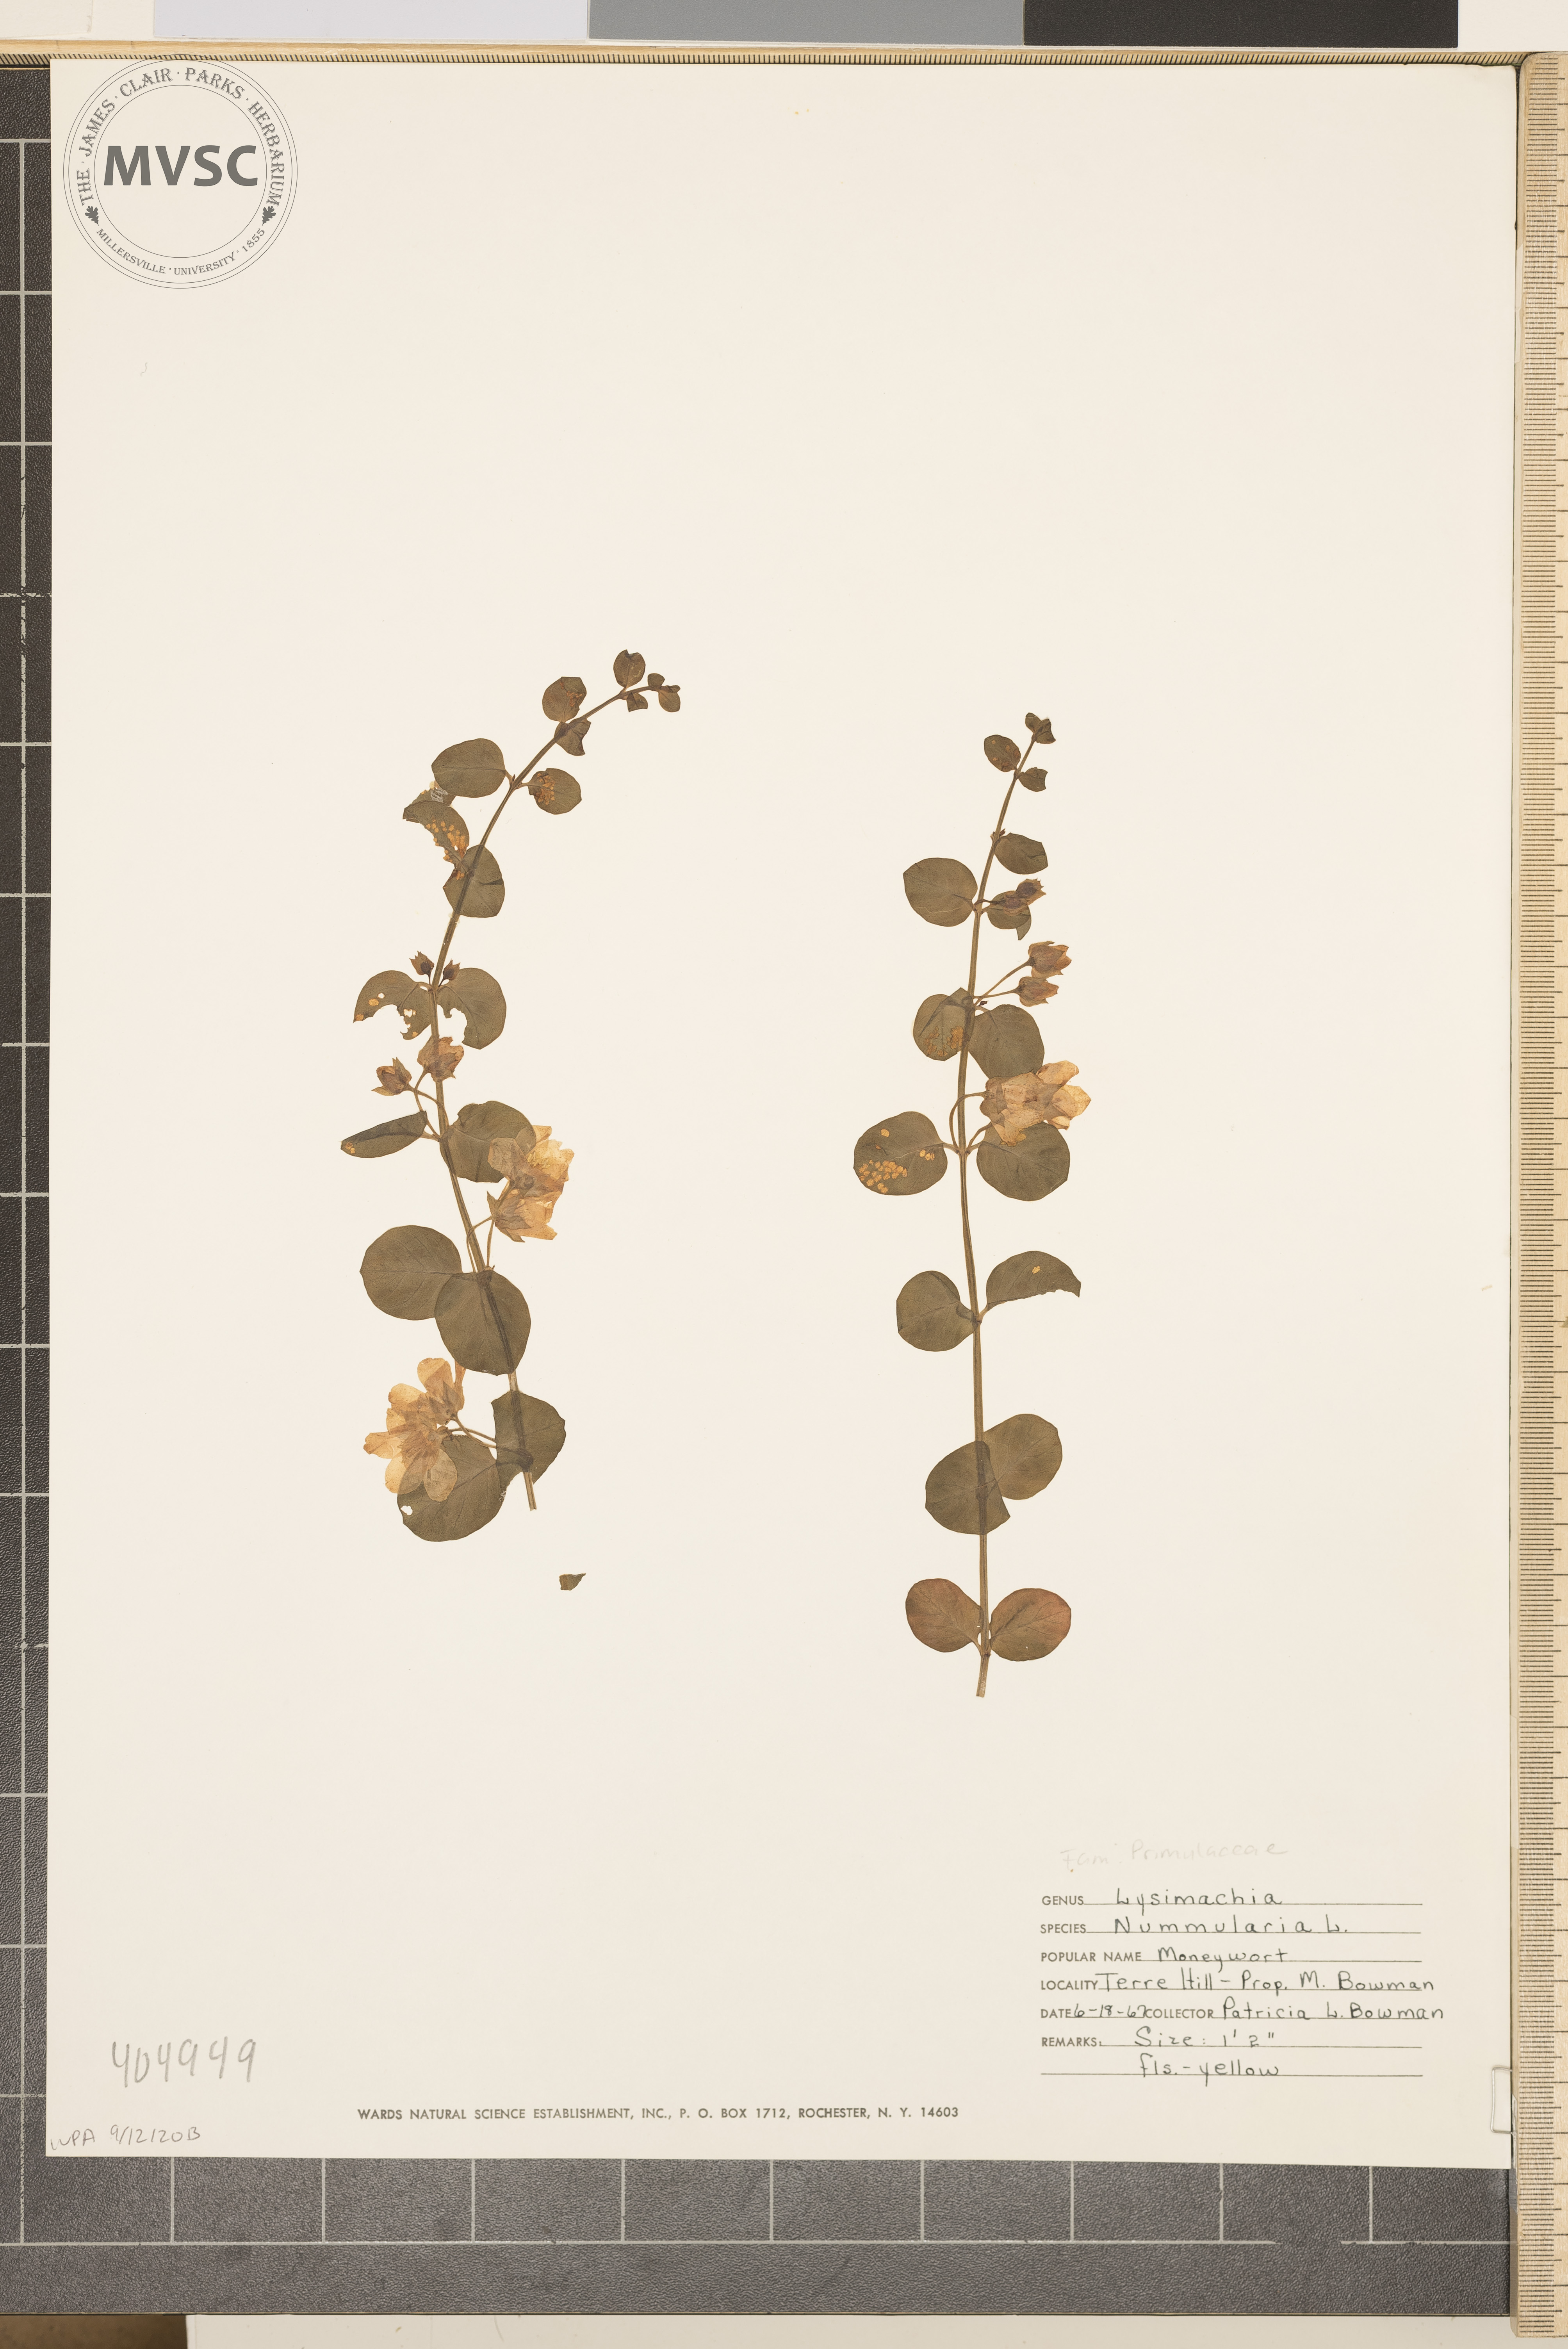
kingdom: Plantae
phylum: Tracheophyta
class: Magnoliopsida
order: Ericales
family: Primulaceae
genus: Lysimachia
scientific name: Lysimachia nummularia
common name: Moneywort
